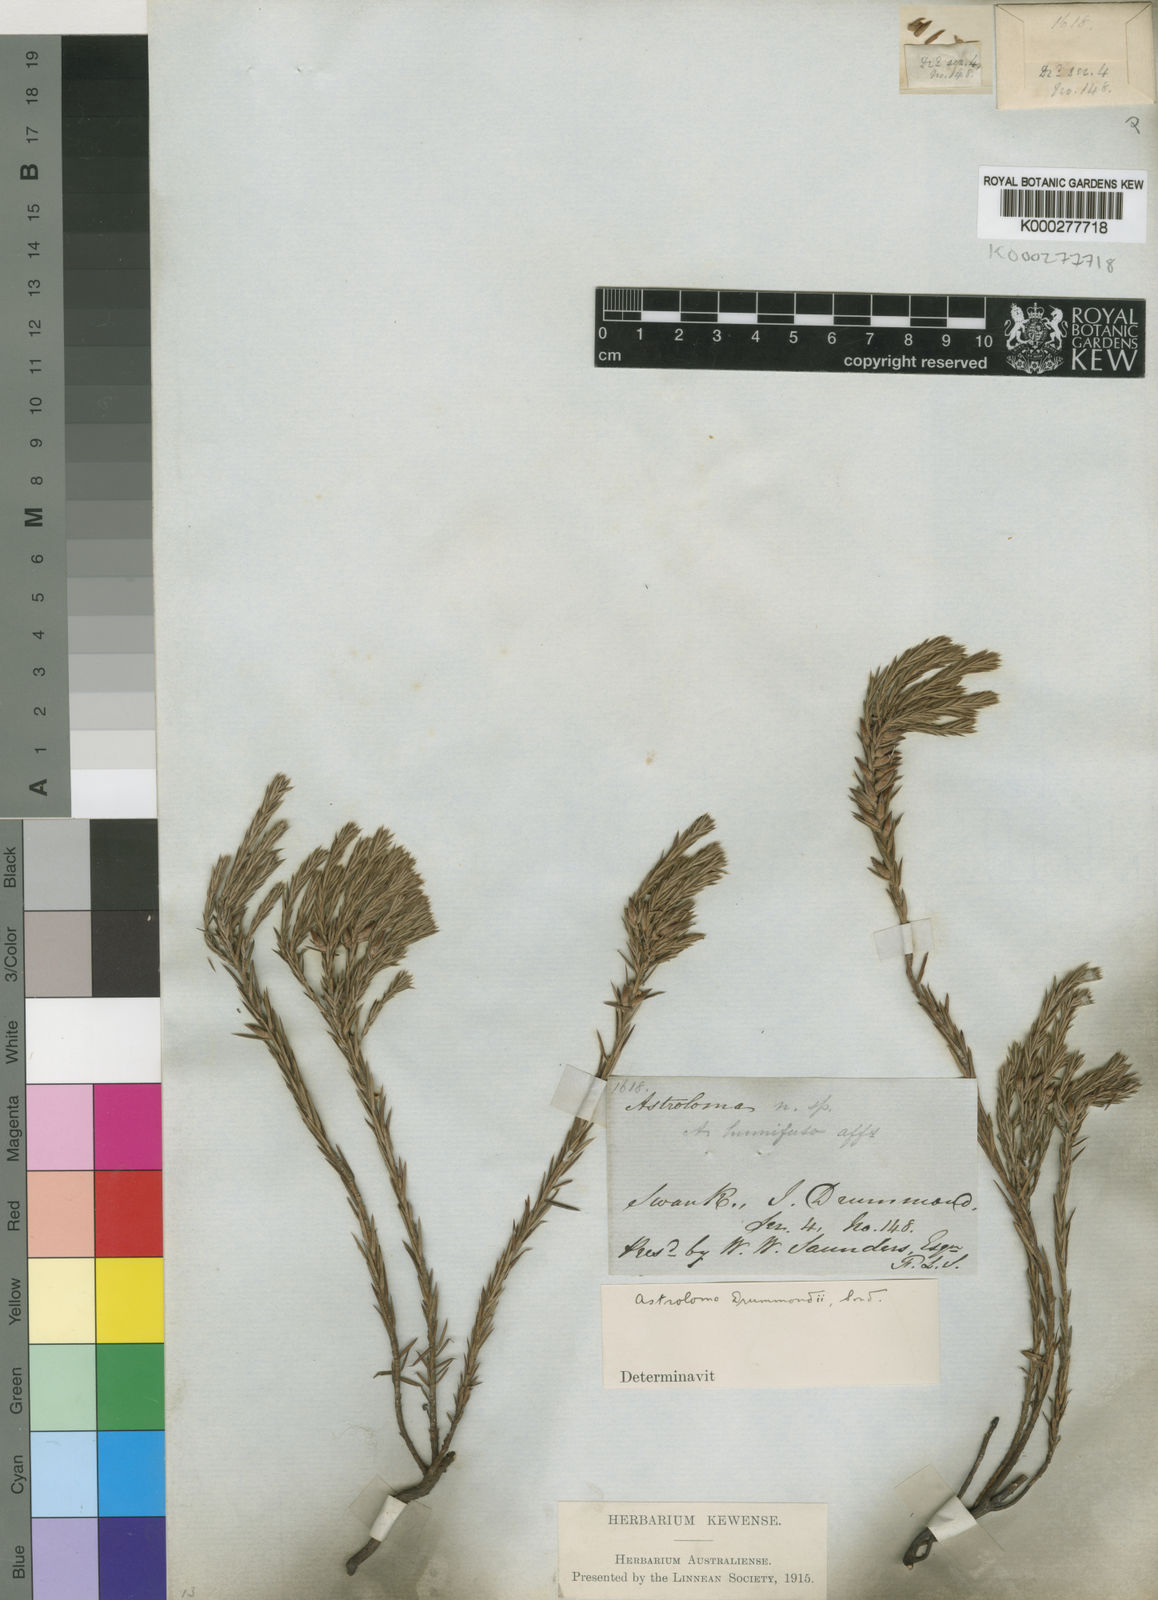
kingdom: Plantae
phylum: Tracheophyta
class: Magnoliopsida
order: Ericales
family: Ericaceae
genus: Styphelia
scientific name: Styphelia epacridis
